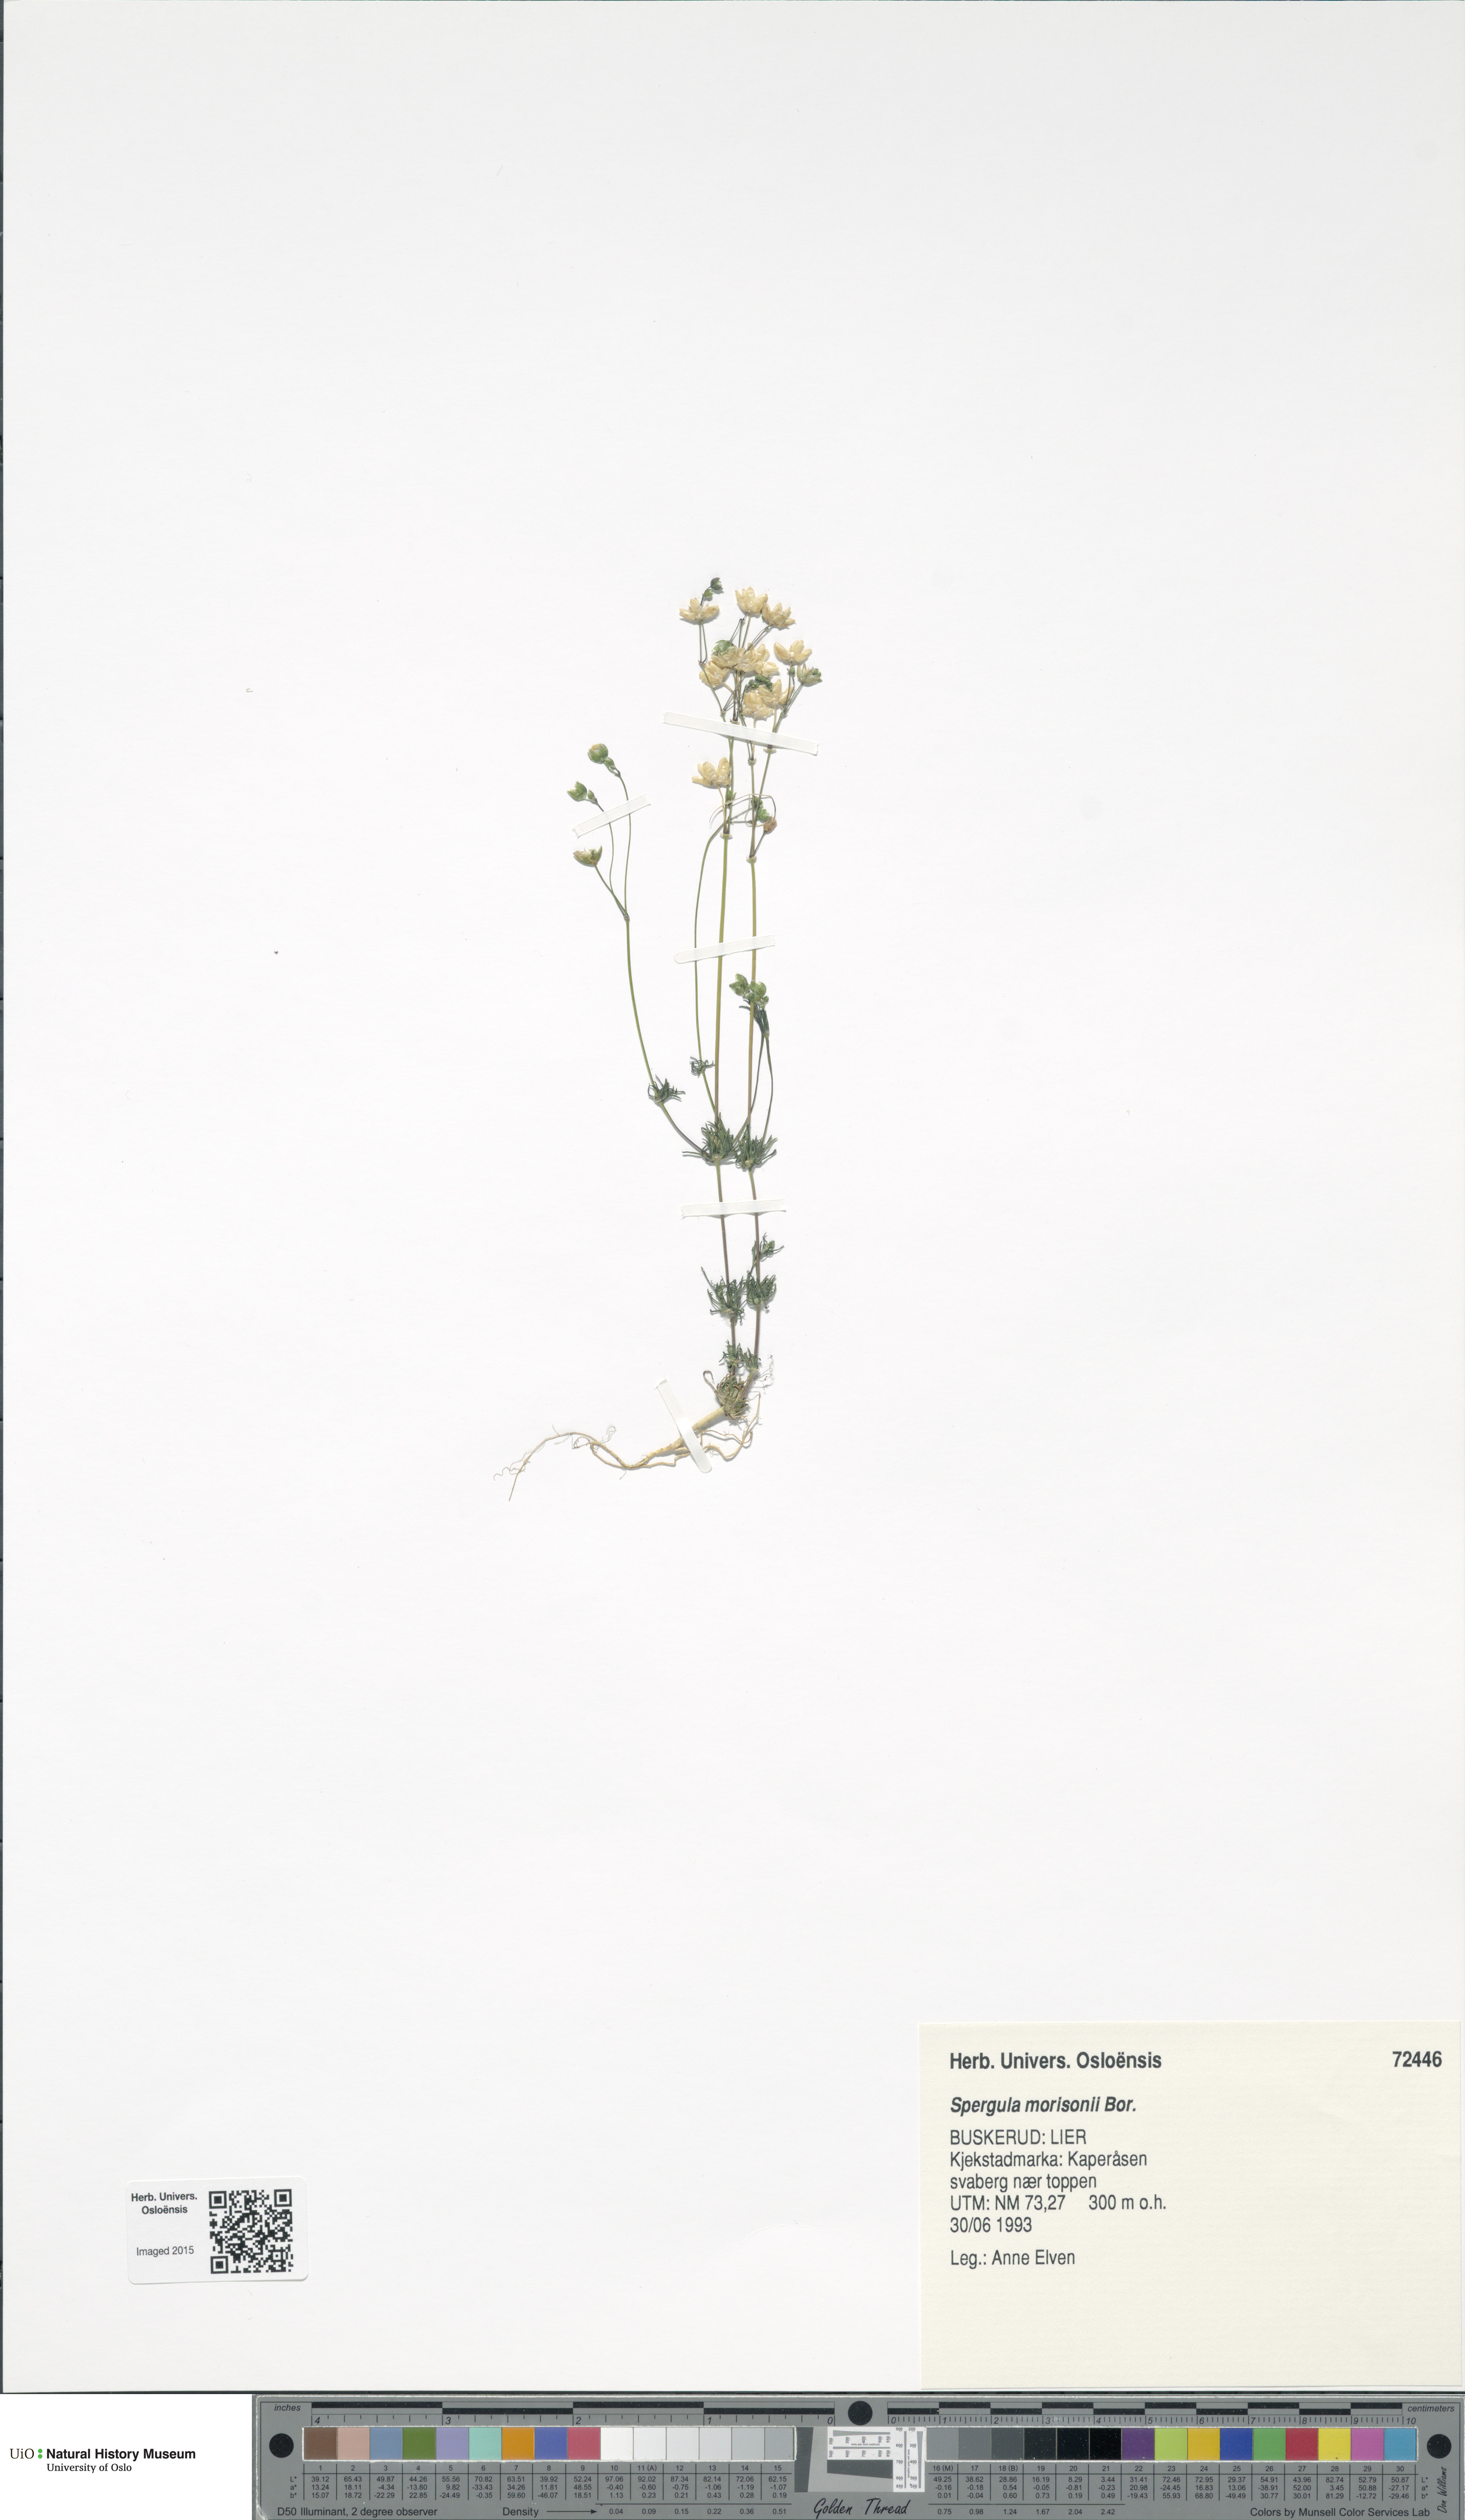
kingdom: Plantae
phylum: Tracheophyta
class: Magnoliopsida
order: Caryophyllales
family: Caryophyllaceae
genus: Spergula
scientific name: Spergula morisonii
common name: Pearlwort spurrey
